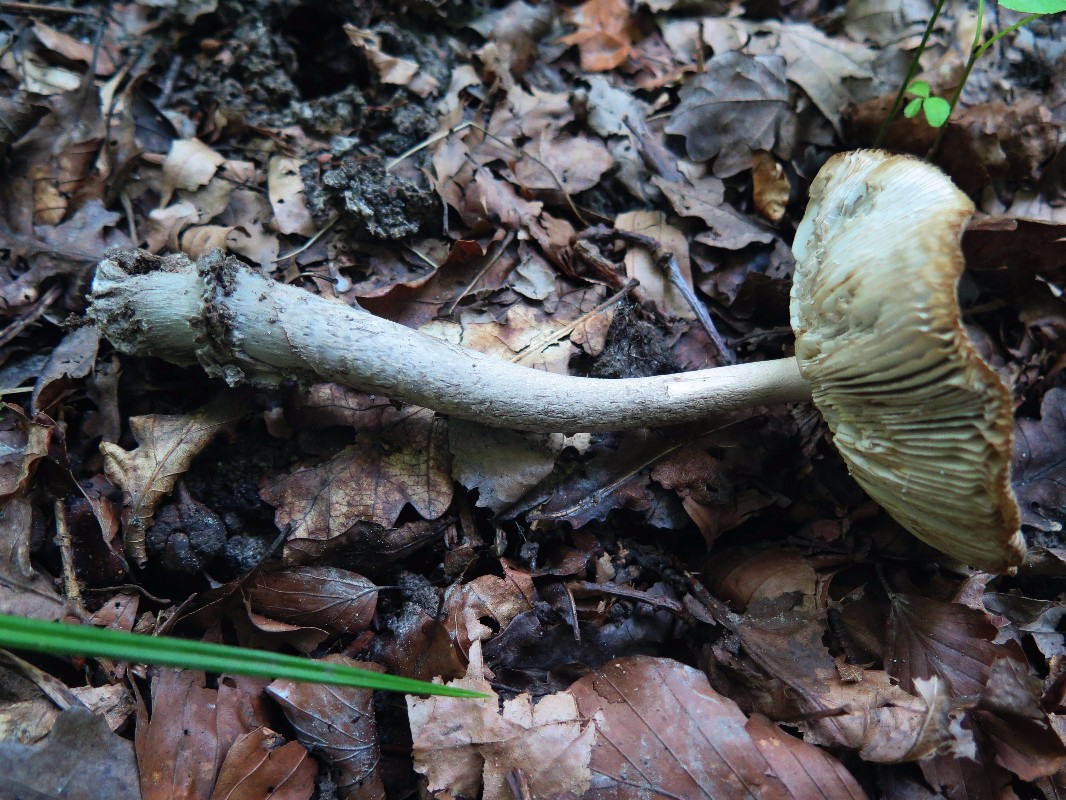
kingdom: Fungi
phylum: Basidiomycota
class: Agaricomycetes
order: Agaricales
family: Amanitaceae
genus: Amanita
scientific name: Amanita ceciliae
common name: stor kam-fluesvamp
